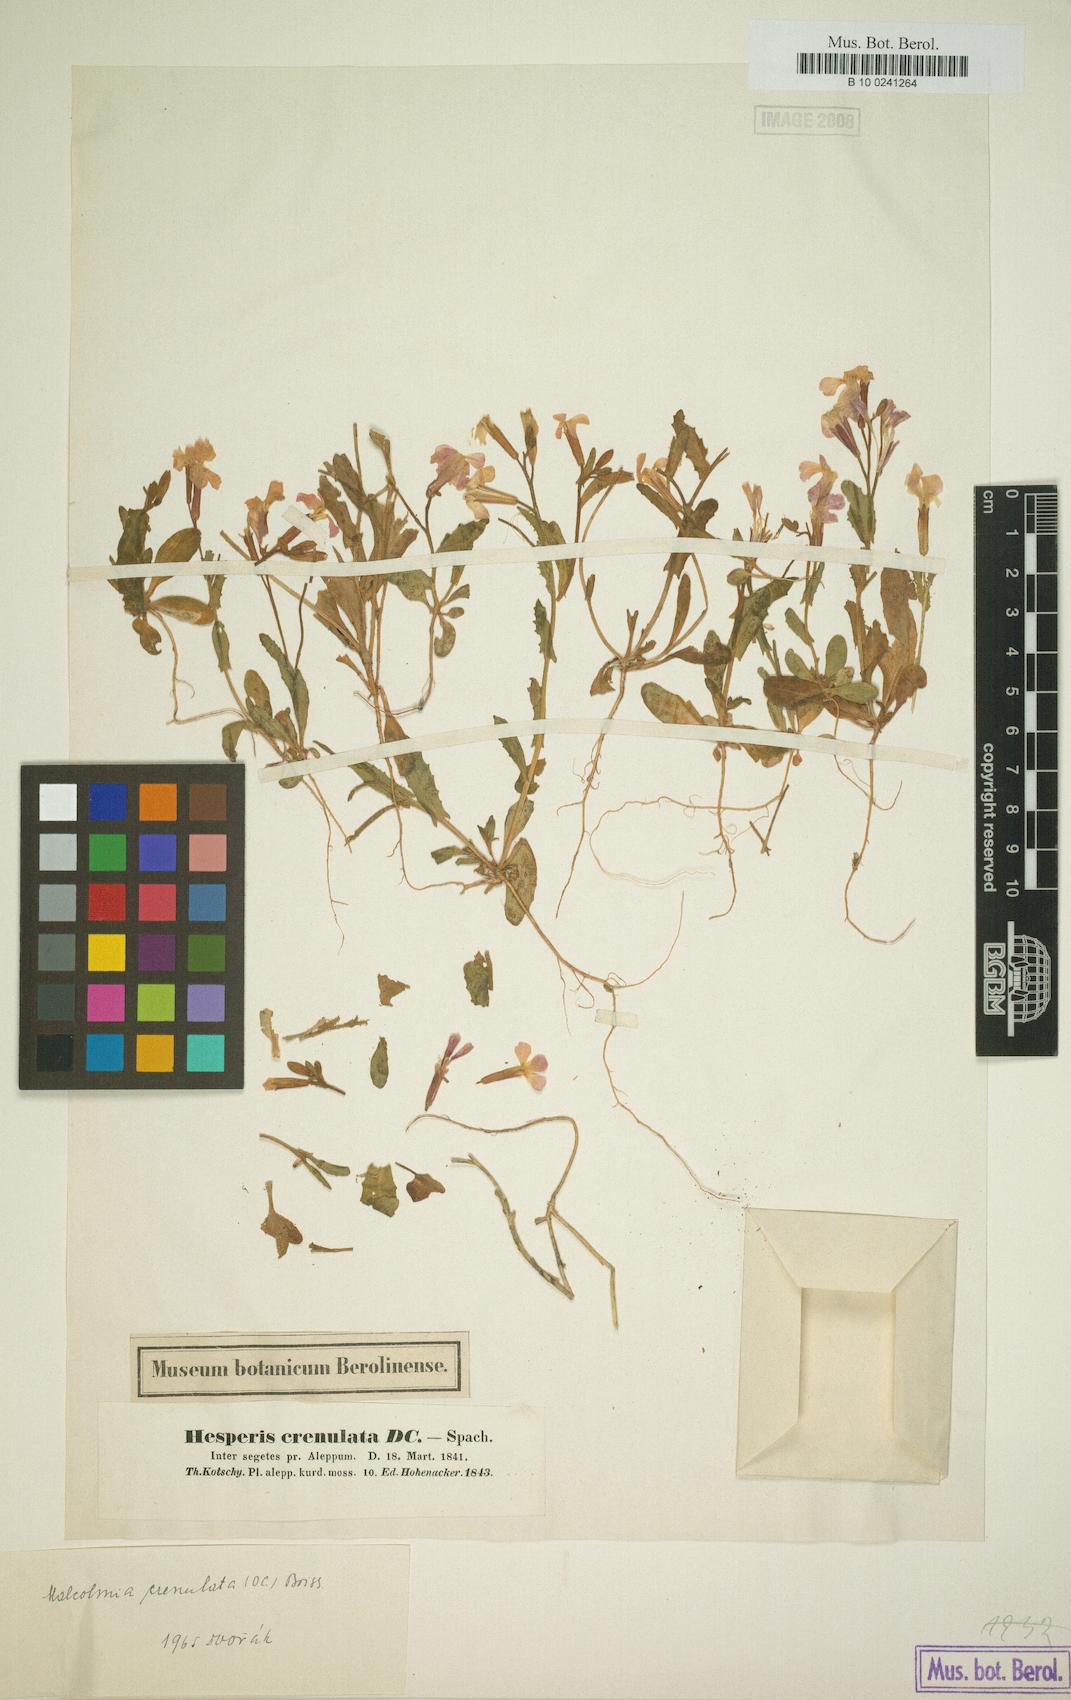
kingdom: Plantae
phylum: Tracheophyta
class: Magnoliopsida
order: Brassicales
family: Brassicaceae
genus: Zuvanda
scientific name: Zuvanda crenulata
